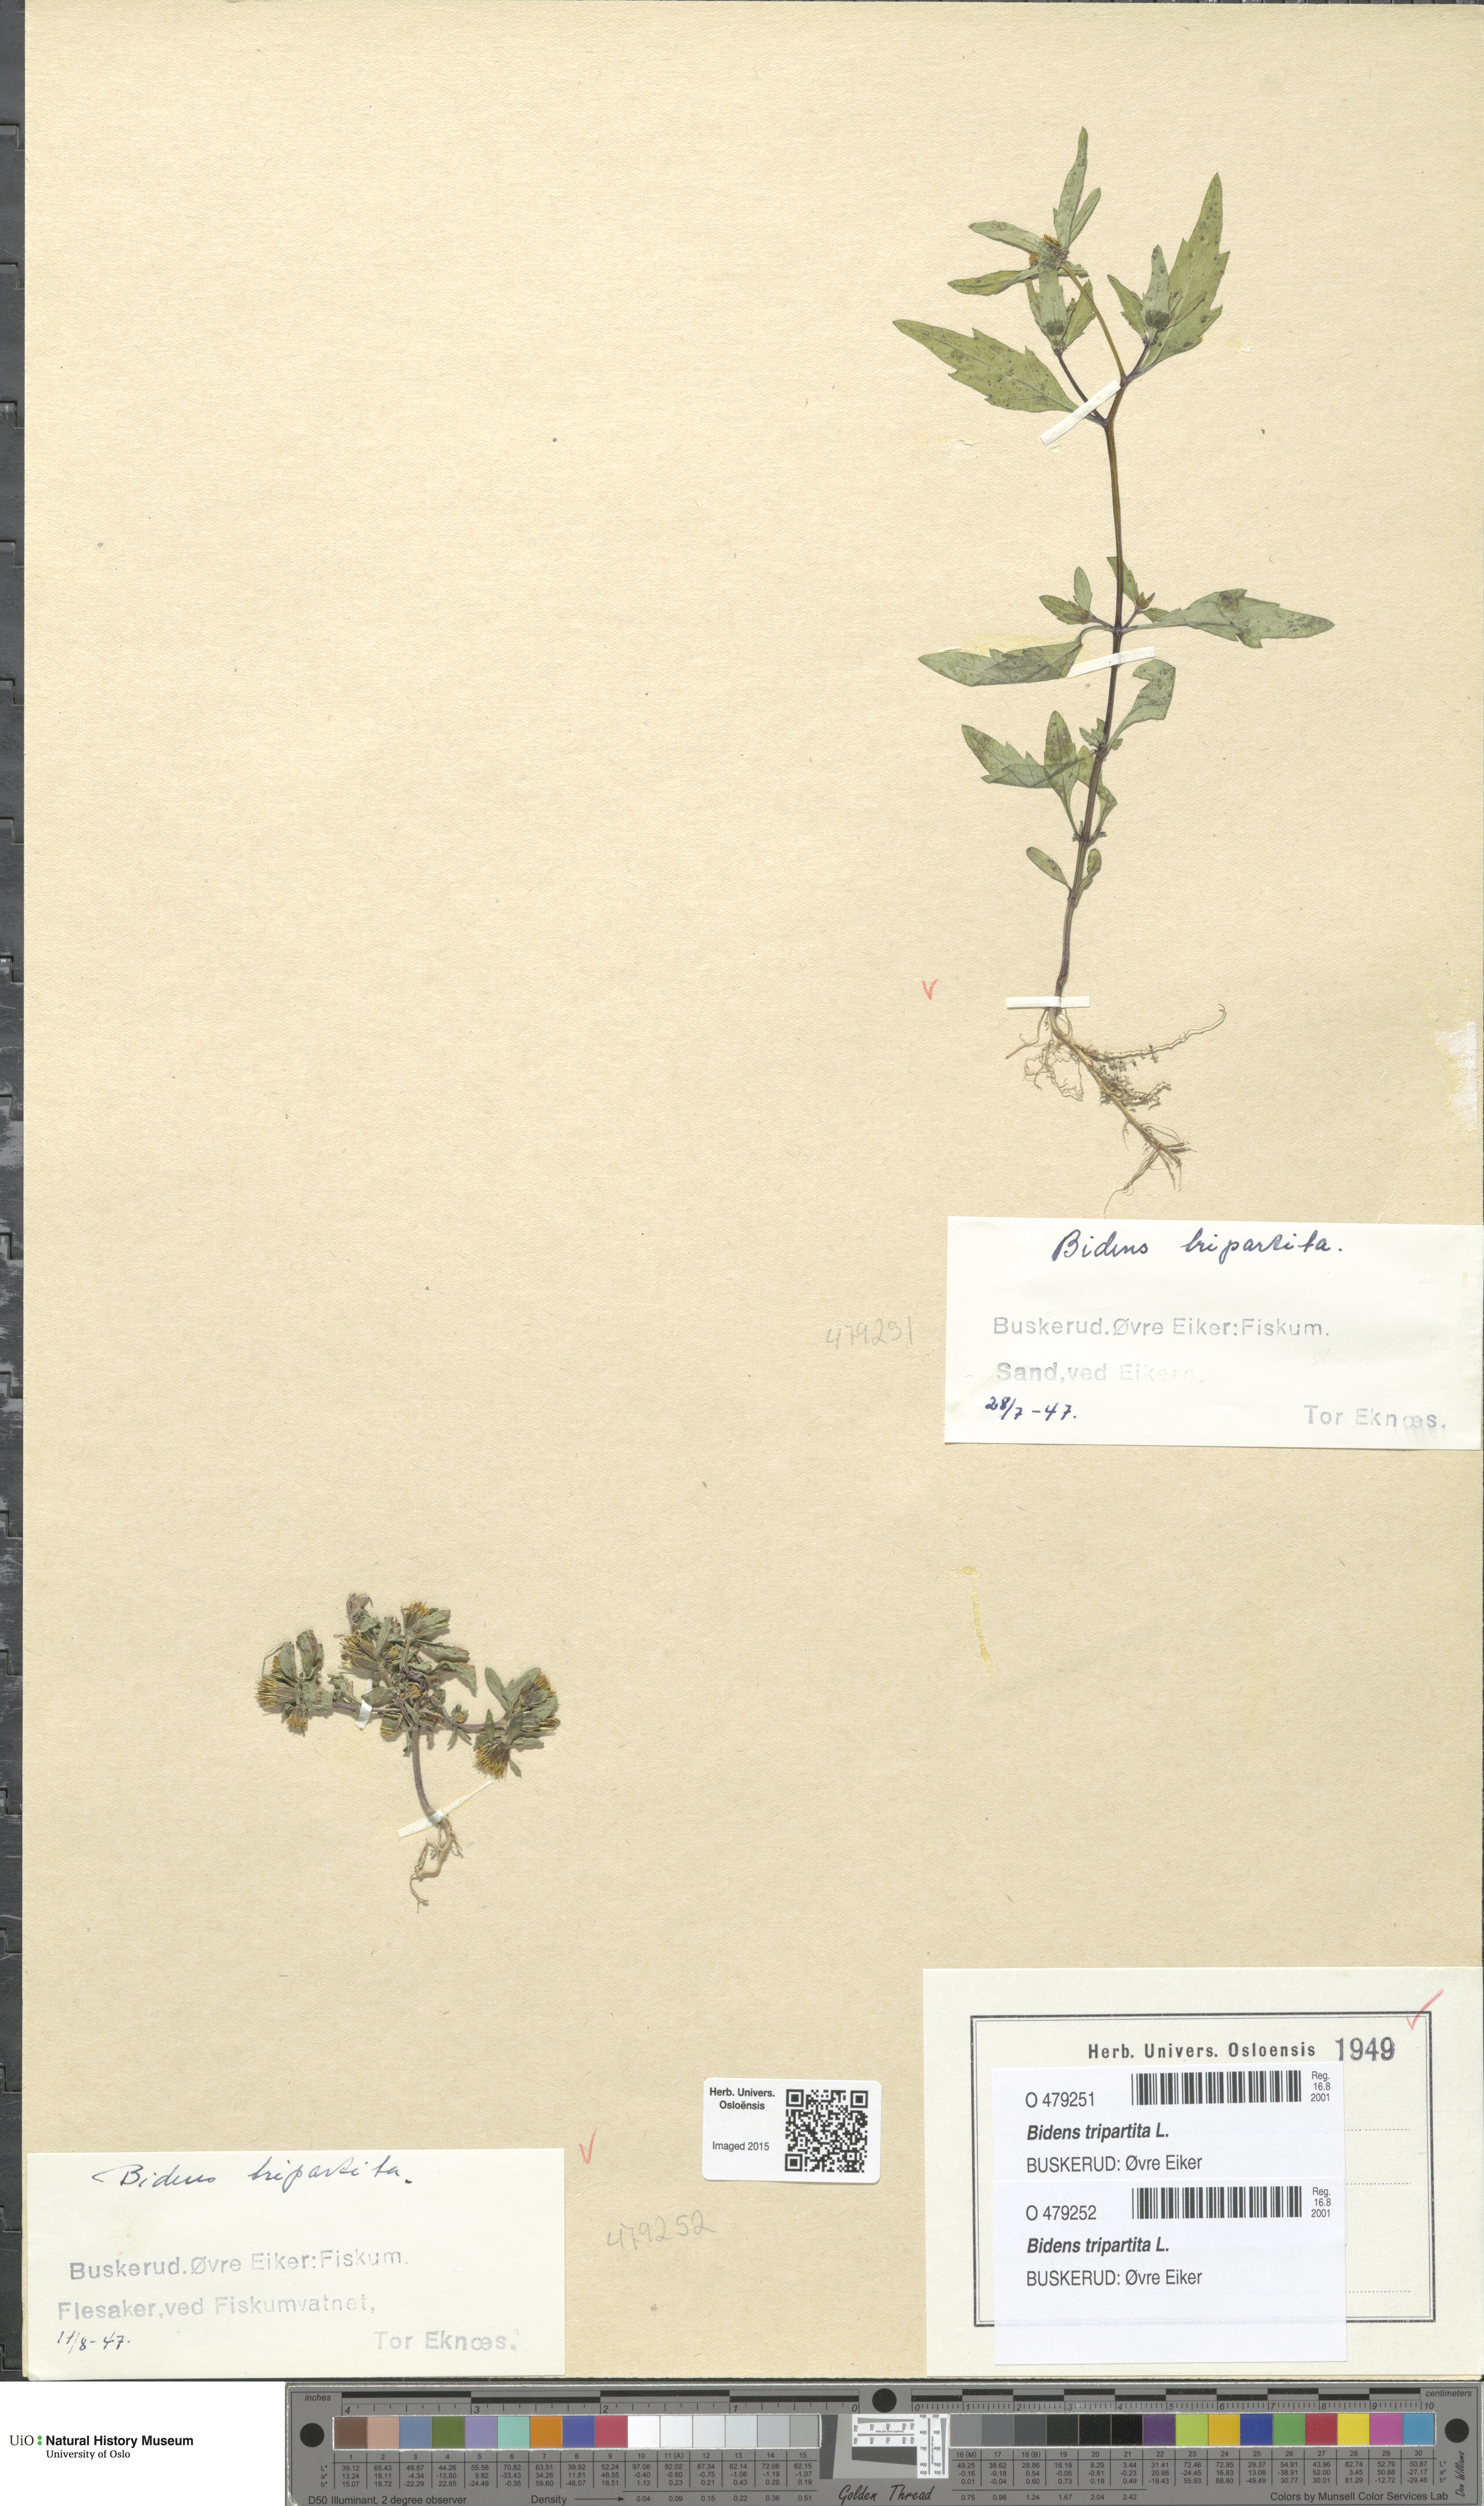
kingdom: Plantae
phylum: Tracheophyta
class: Magnoliopsida
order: Asterales
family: Asteraceae
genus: Bidens
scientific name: Bidens tripartita
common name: Trifid bur-marigold
